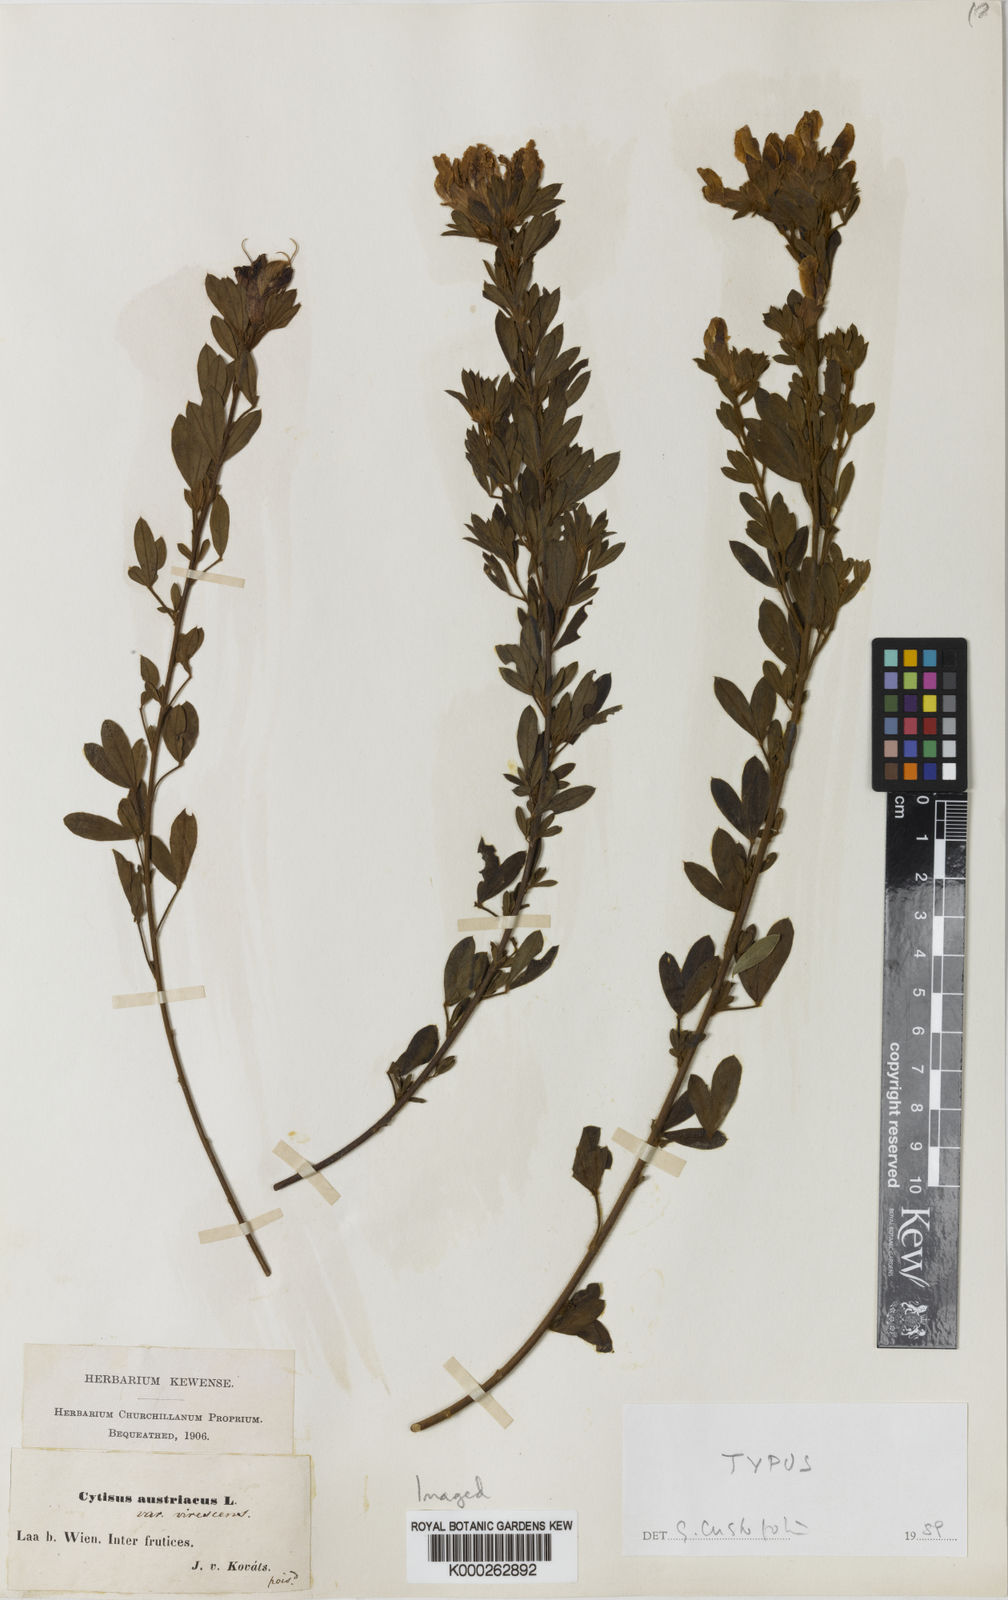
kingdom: Plantae
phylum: Tracheophyta
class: Magnoliopsida
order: Fabales
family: Fabaceae
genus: Chamaecytisus
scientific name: Chamaecytisus virescens
